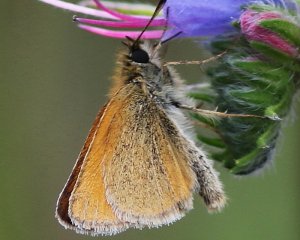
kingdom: Animalia
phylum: Arthropoda
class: Insecta
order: Lepidoptera
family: Hesperiidae
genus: Thymelicus
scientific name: Thymelicus lineola
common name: European Skipper
